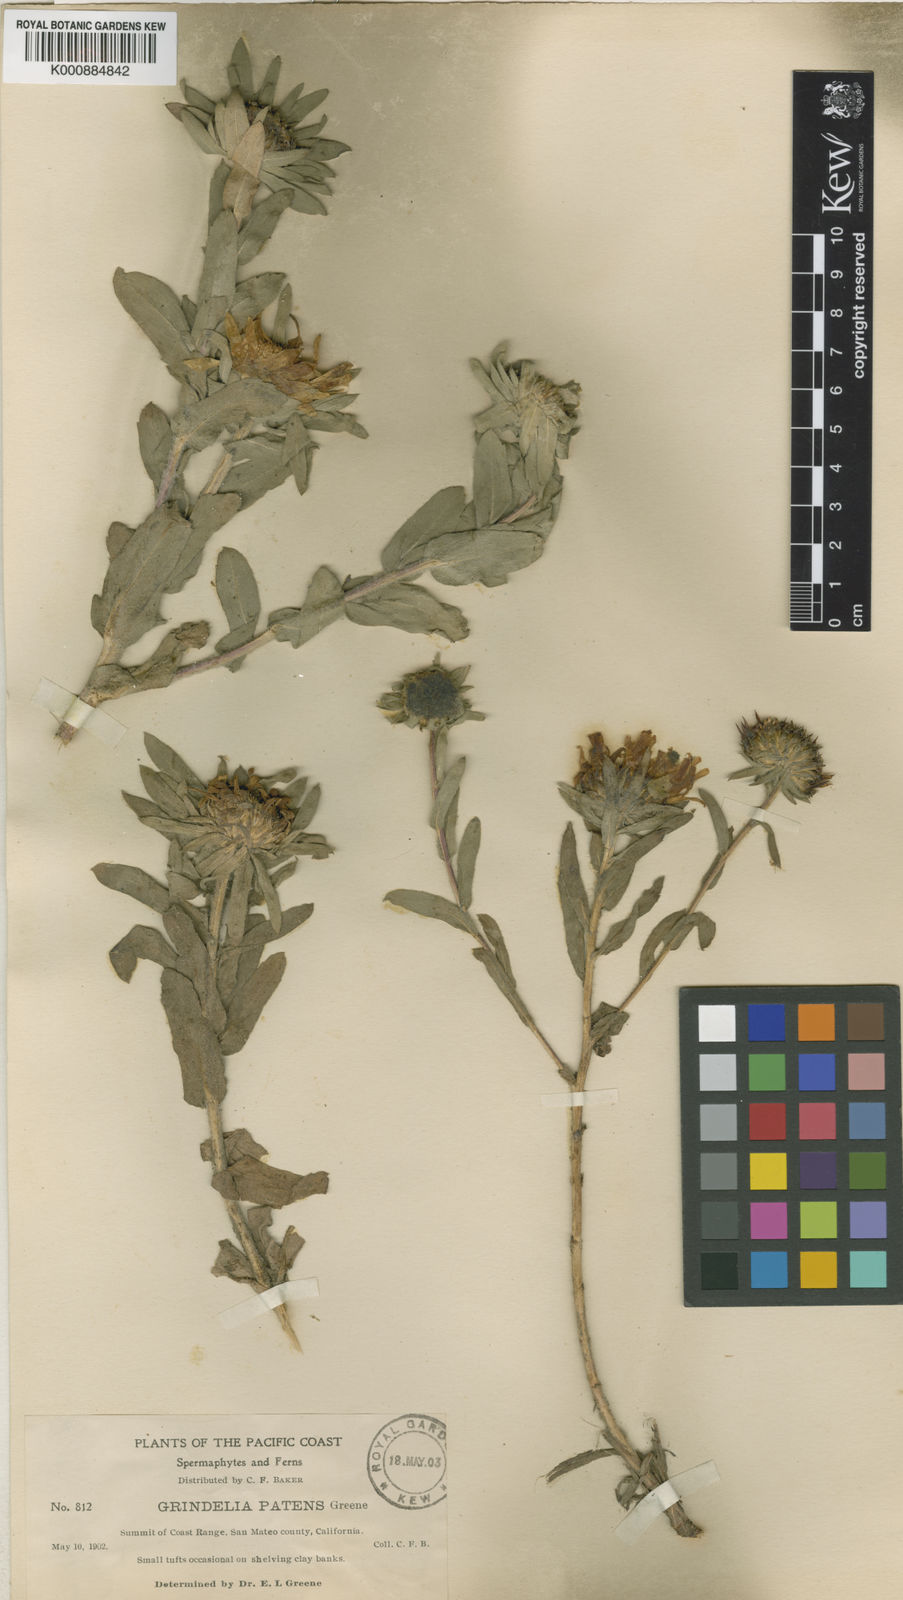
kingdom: Plantae
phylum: Tracheophyta
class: Magnoliopsida
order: Asterales
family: Asteraceae
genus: Grindelia
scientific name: Grindelia hirsutula
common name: Hairy gumweed
